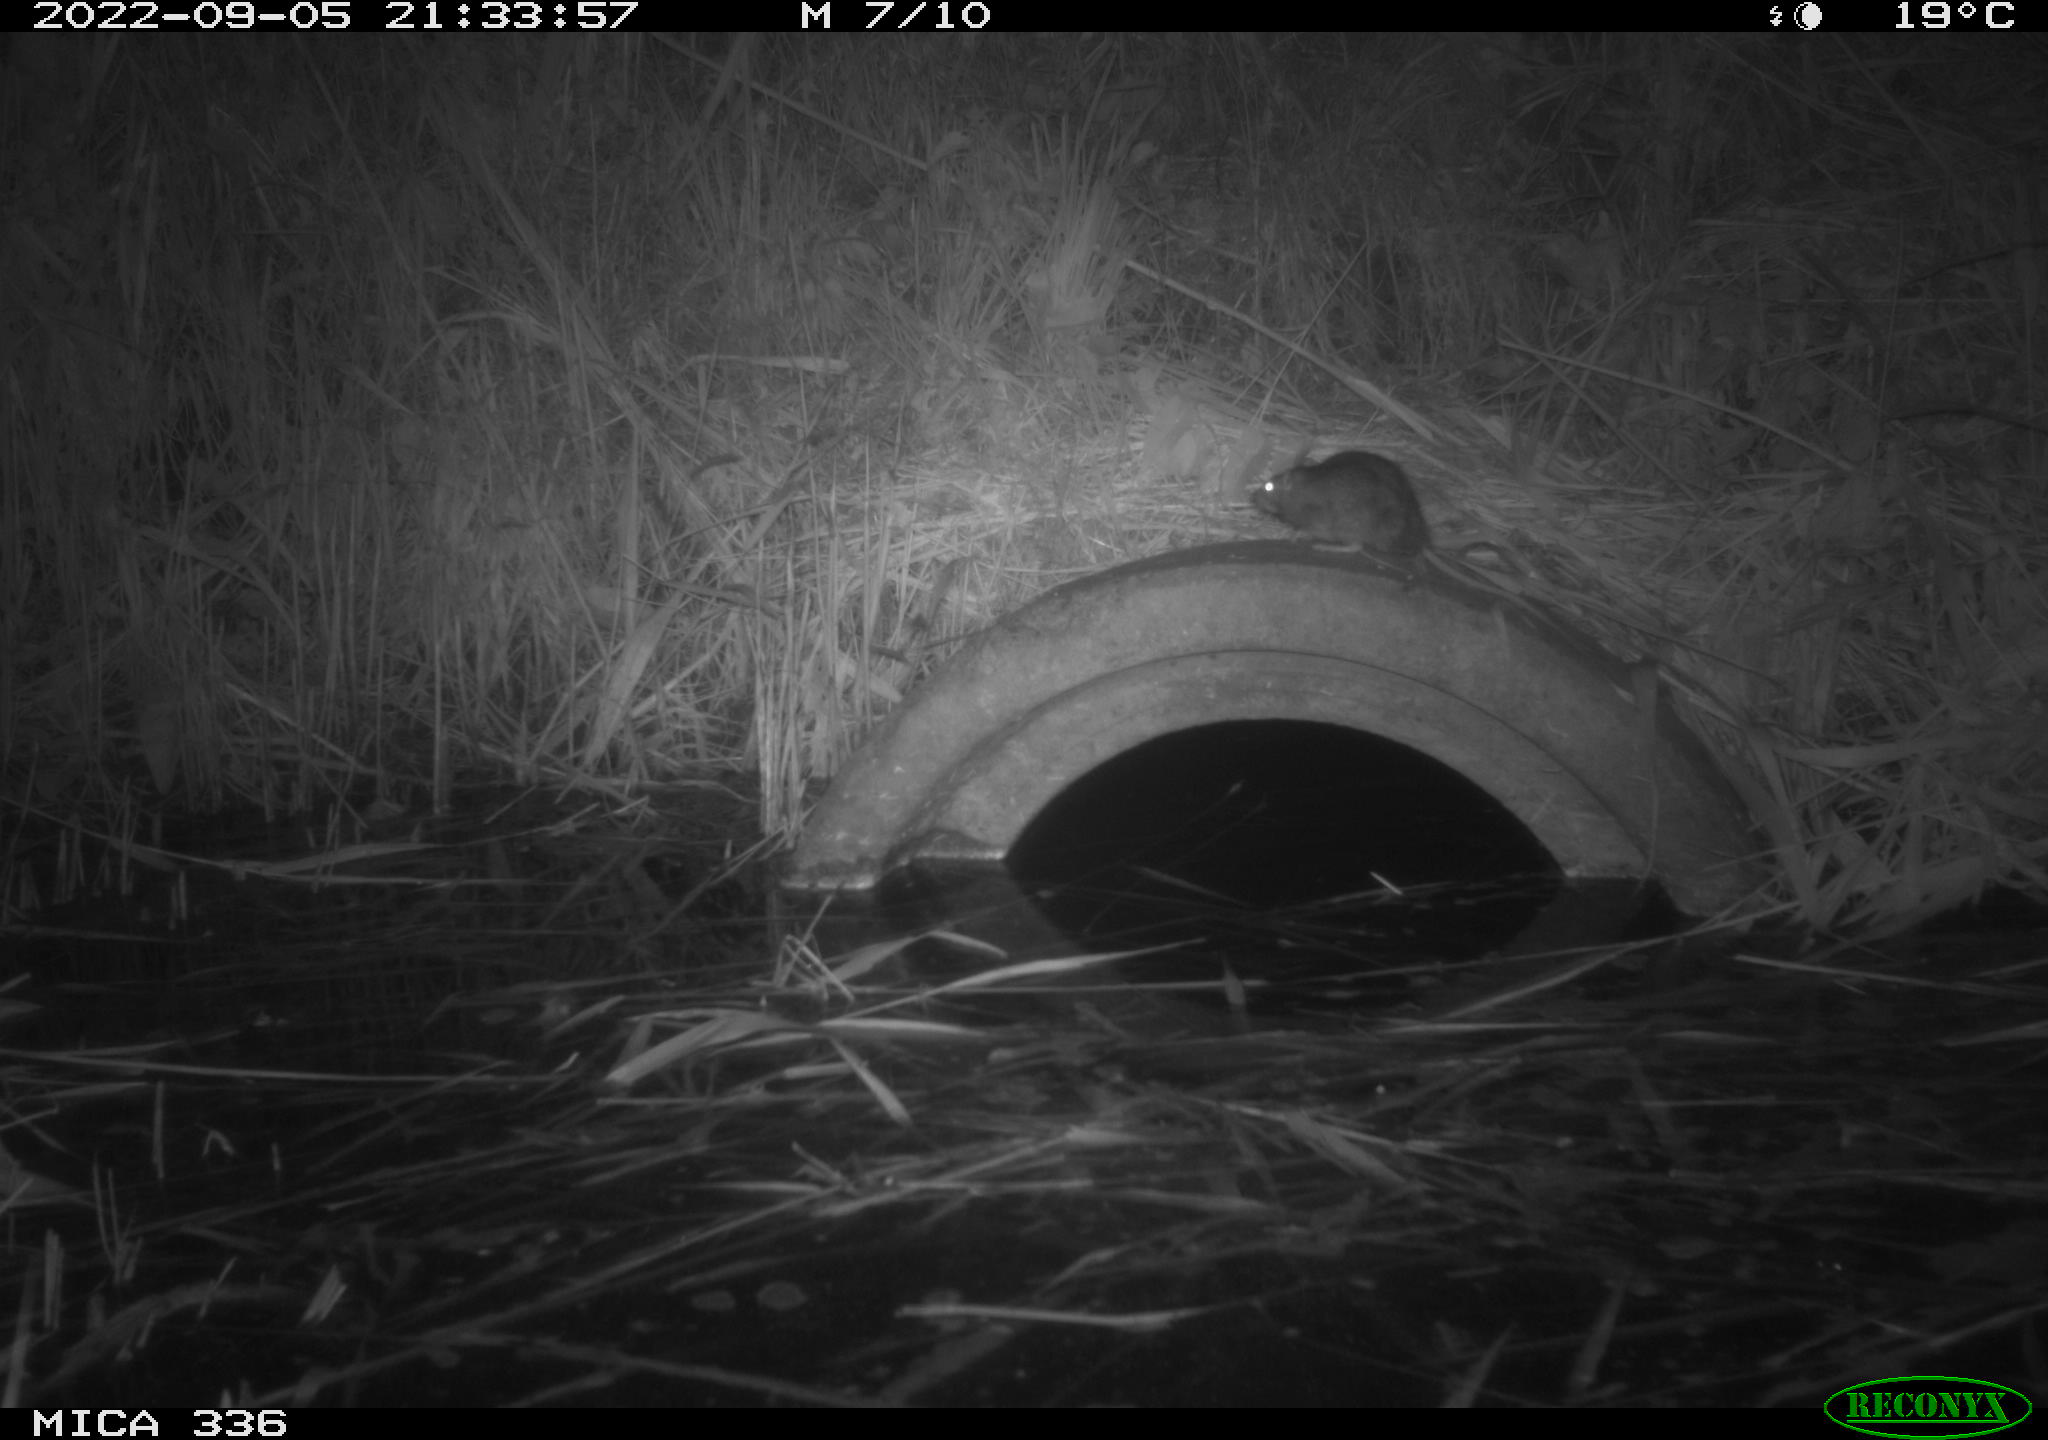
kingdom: Animalia
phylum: Chordata
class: Mammalia
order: Rodentia
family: Muridae
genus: Rattus
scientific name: Rattus norvegicus
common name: Brown rat
